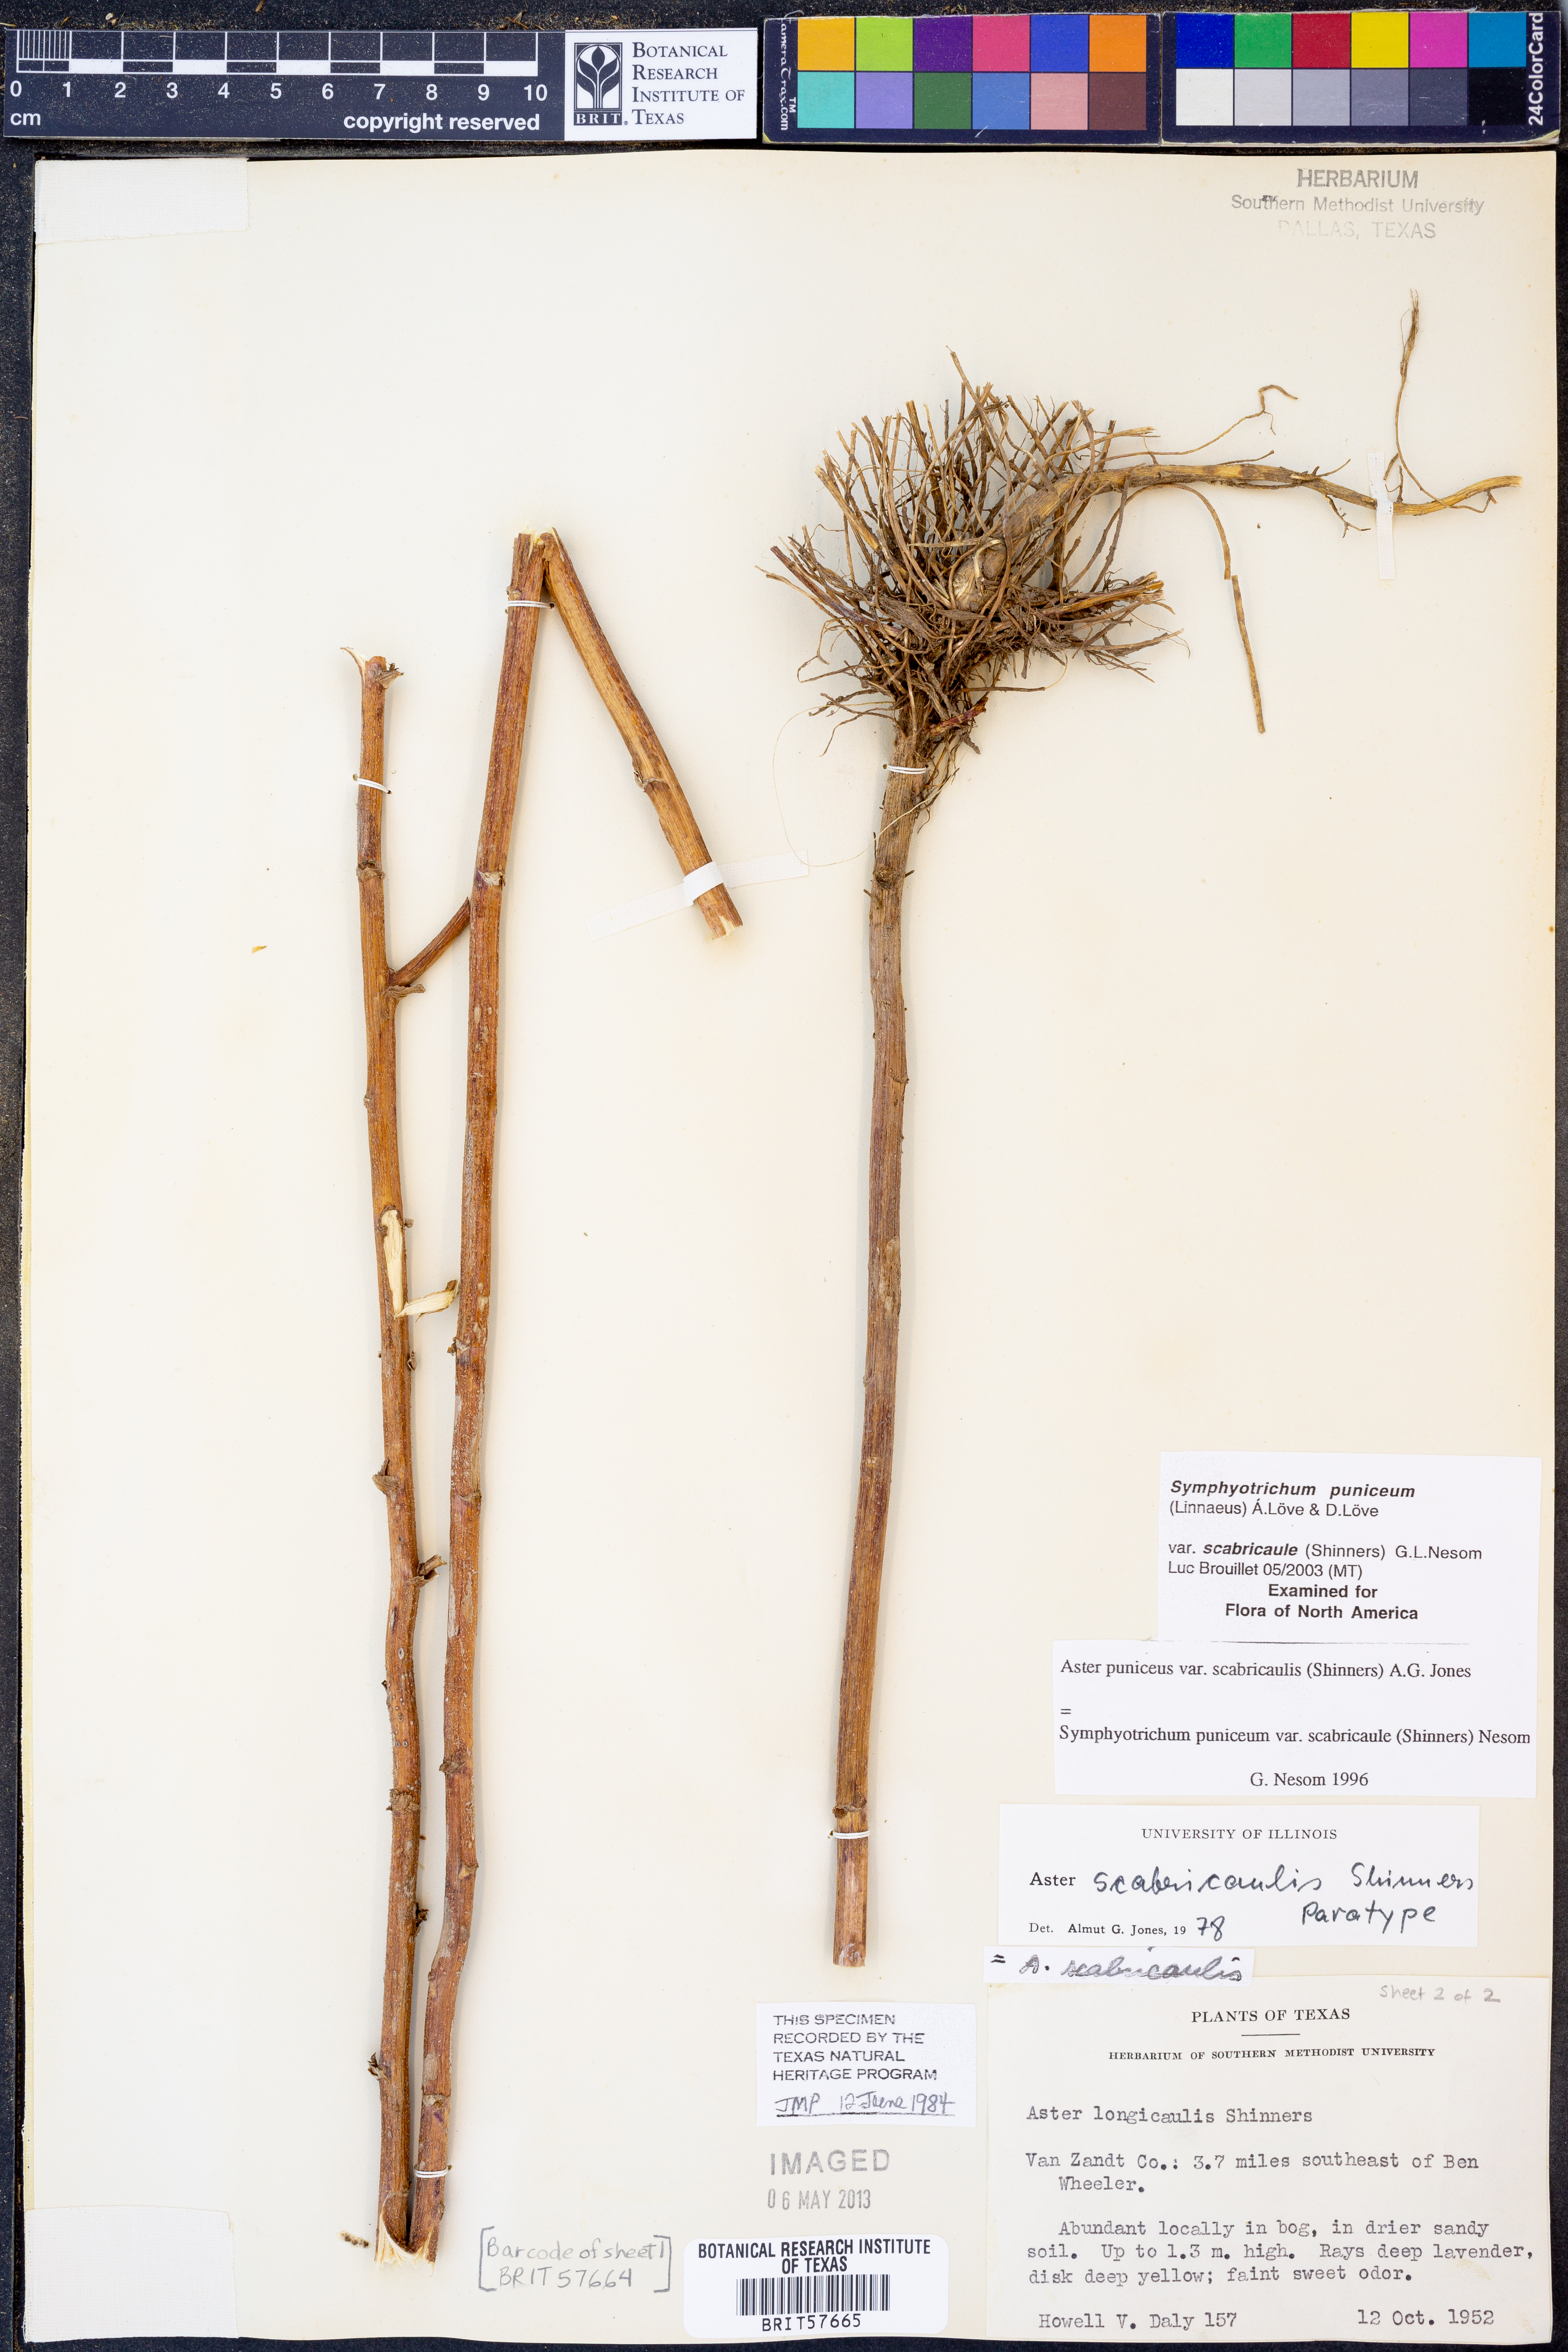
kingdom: Plantae
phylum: Tracheophyta
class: Magnoliopsida
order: Asterales
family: Asteraceae
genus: Symphyotrichum
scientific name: Symphyotrichum puniceum
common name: Bog aster
